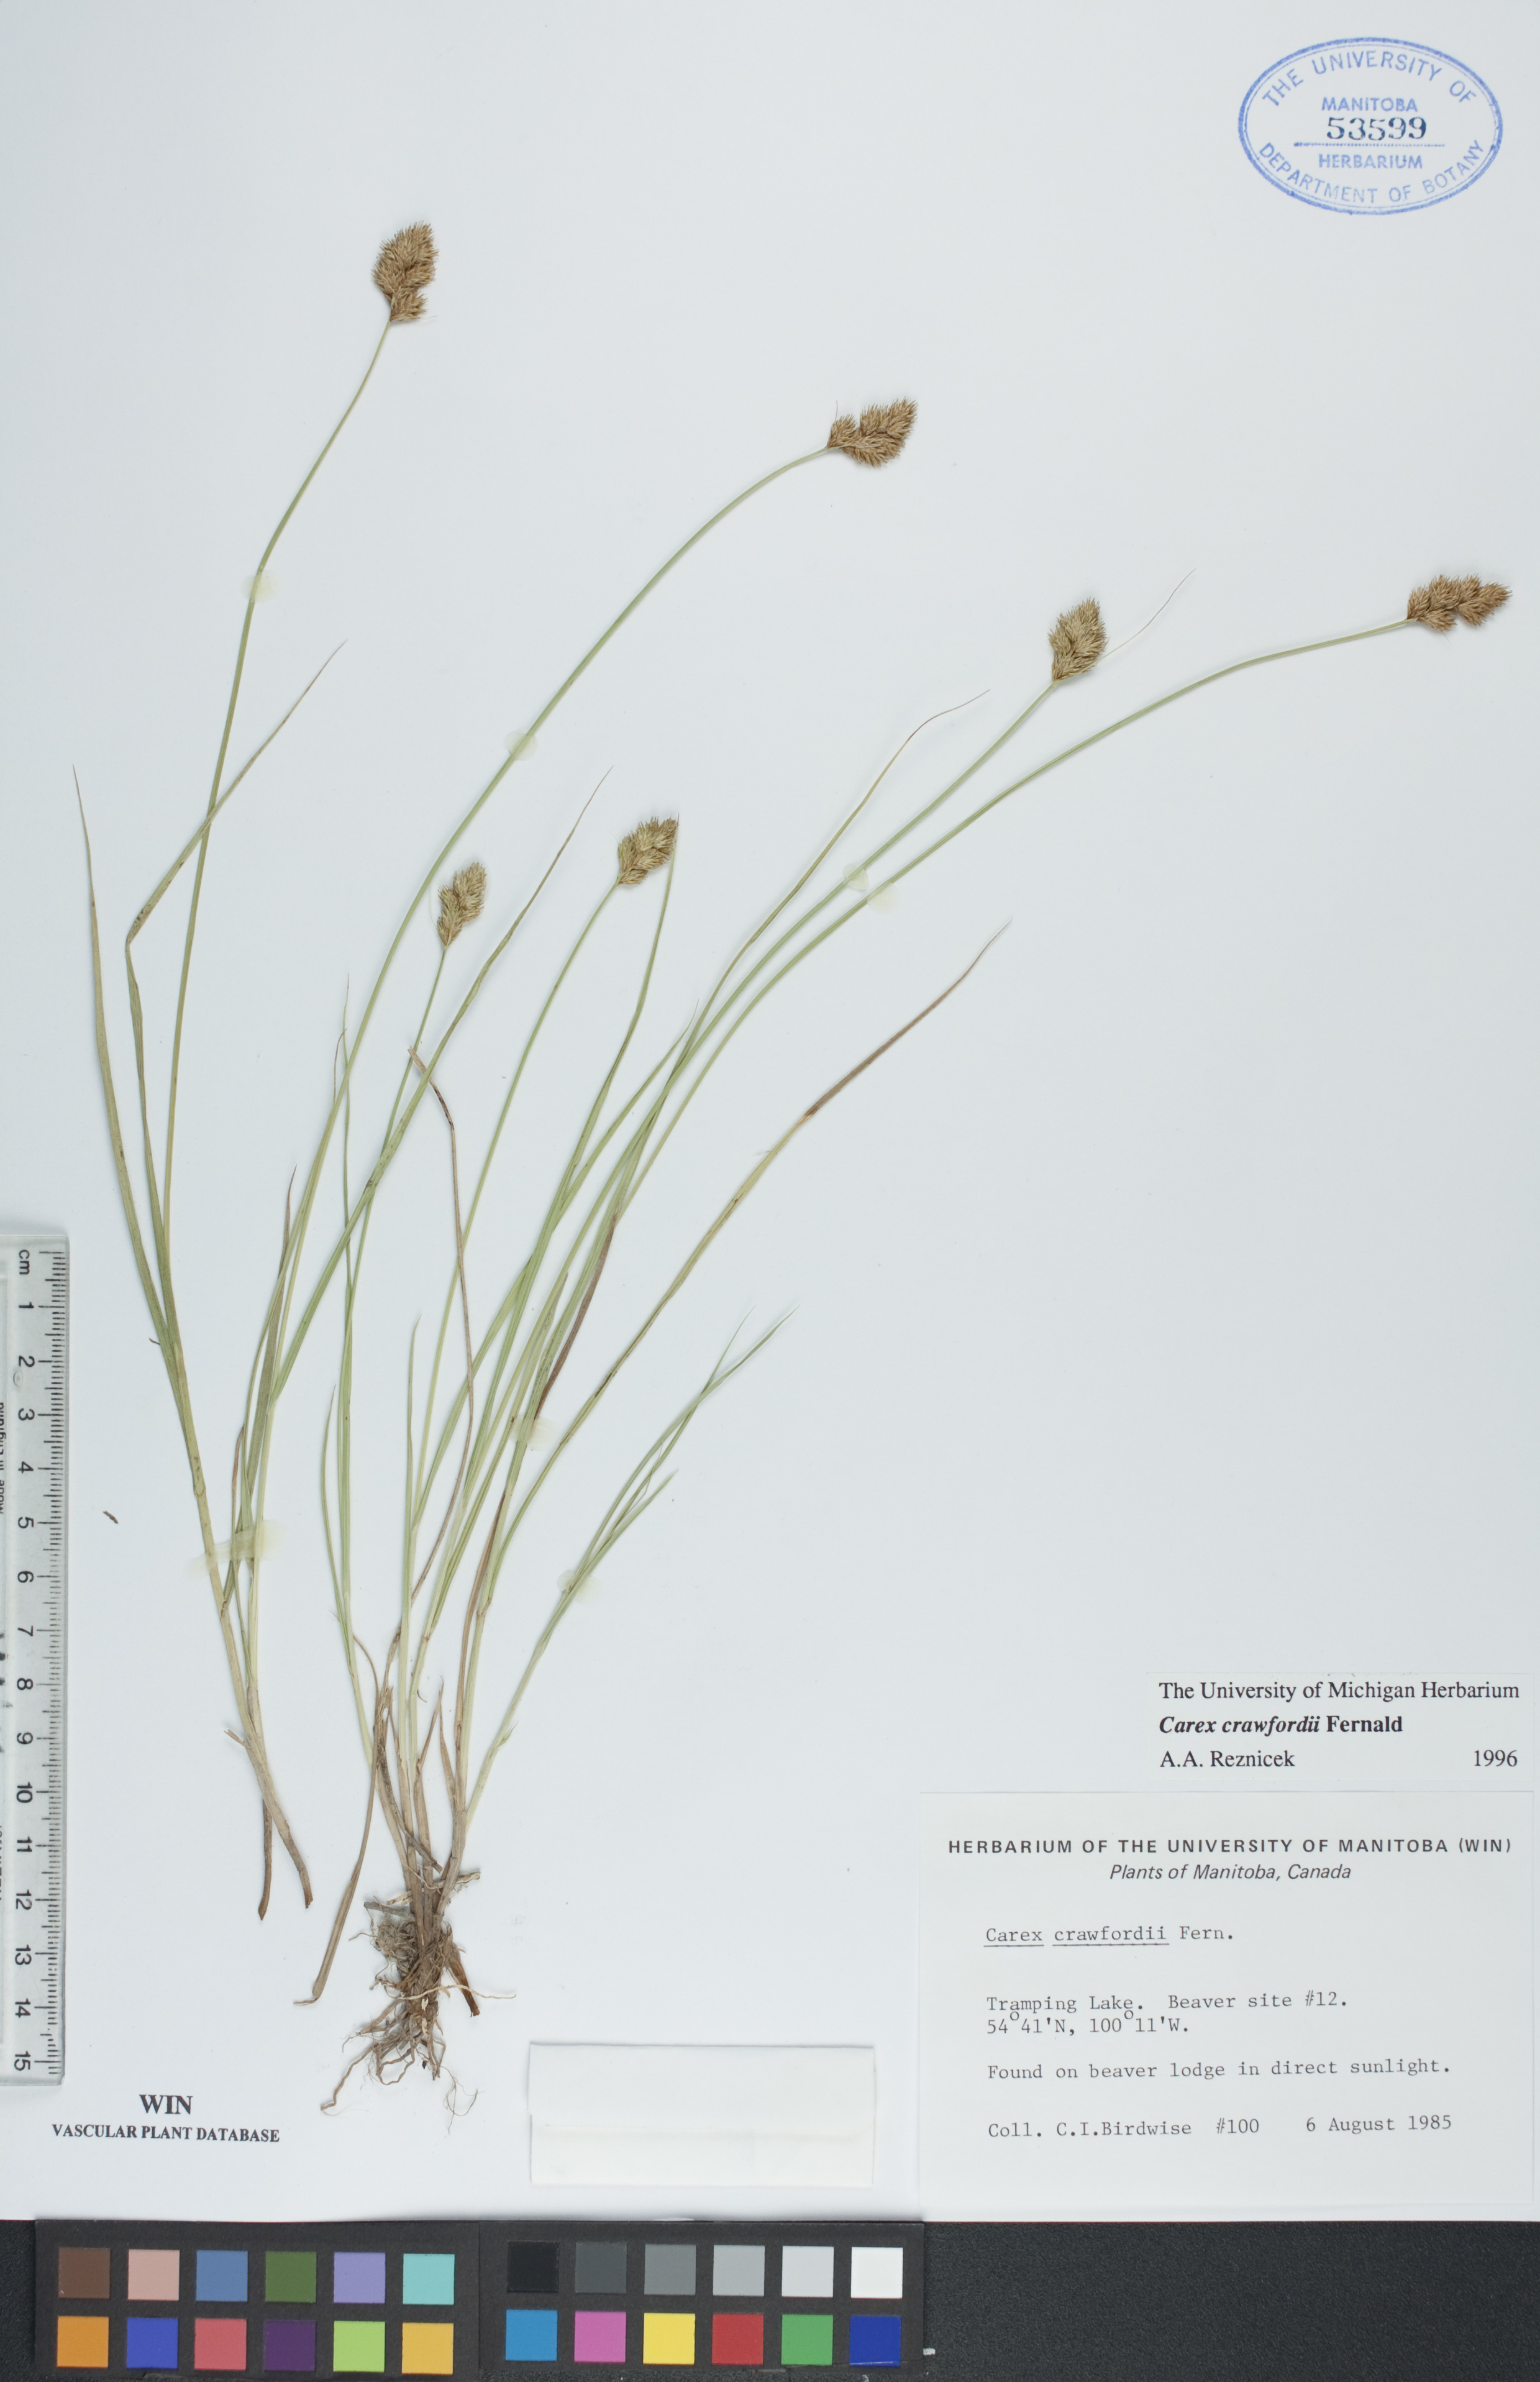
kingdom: Plantae
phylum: Tracheophyta
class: Liliopsida
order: Poales
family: Cyperaceae
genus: Carex
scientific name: Carex crawfordii
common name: Crawford's sedge
